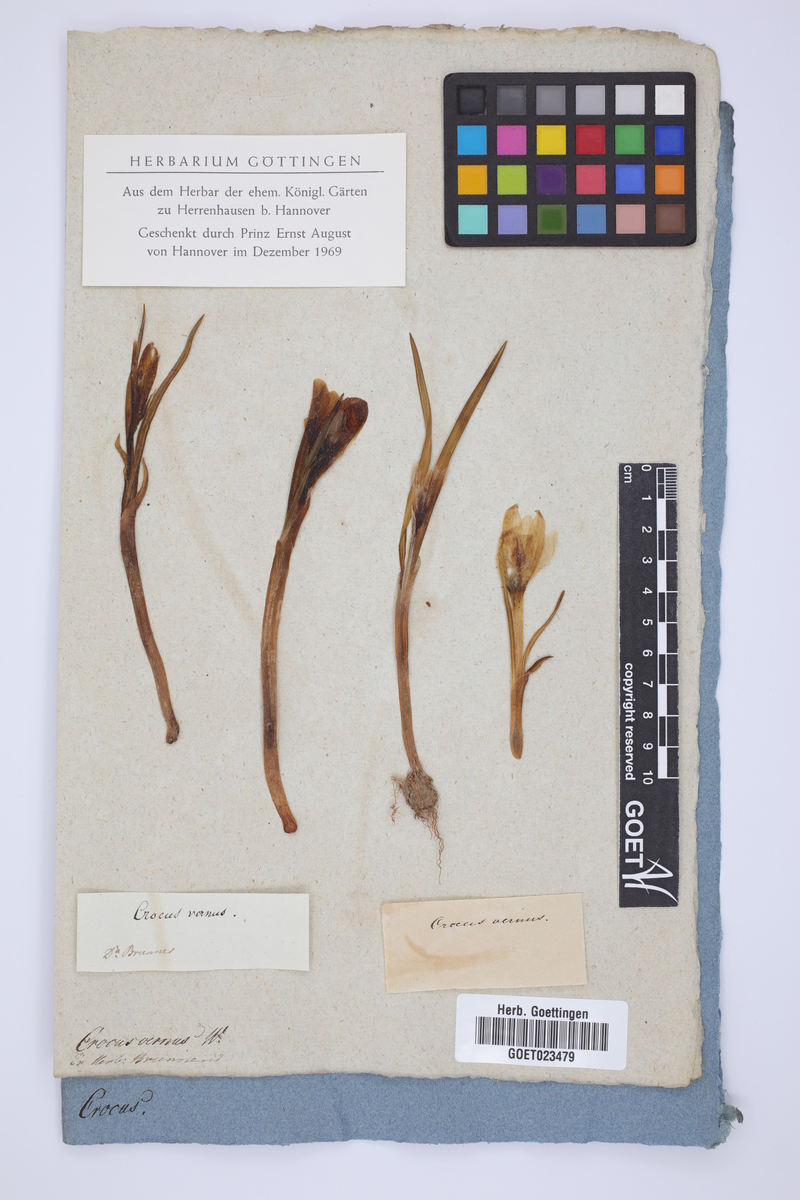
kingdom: Plantae
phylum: Tracheophyta
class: Liliopsida
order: Asparagales
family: Iridaceae
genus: Crocus
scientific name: Crocus vernus
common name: Spring crocus
